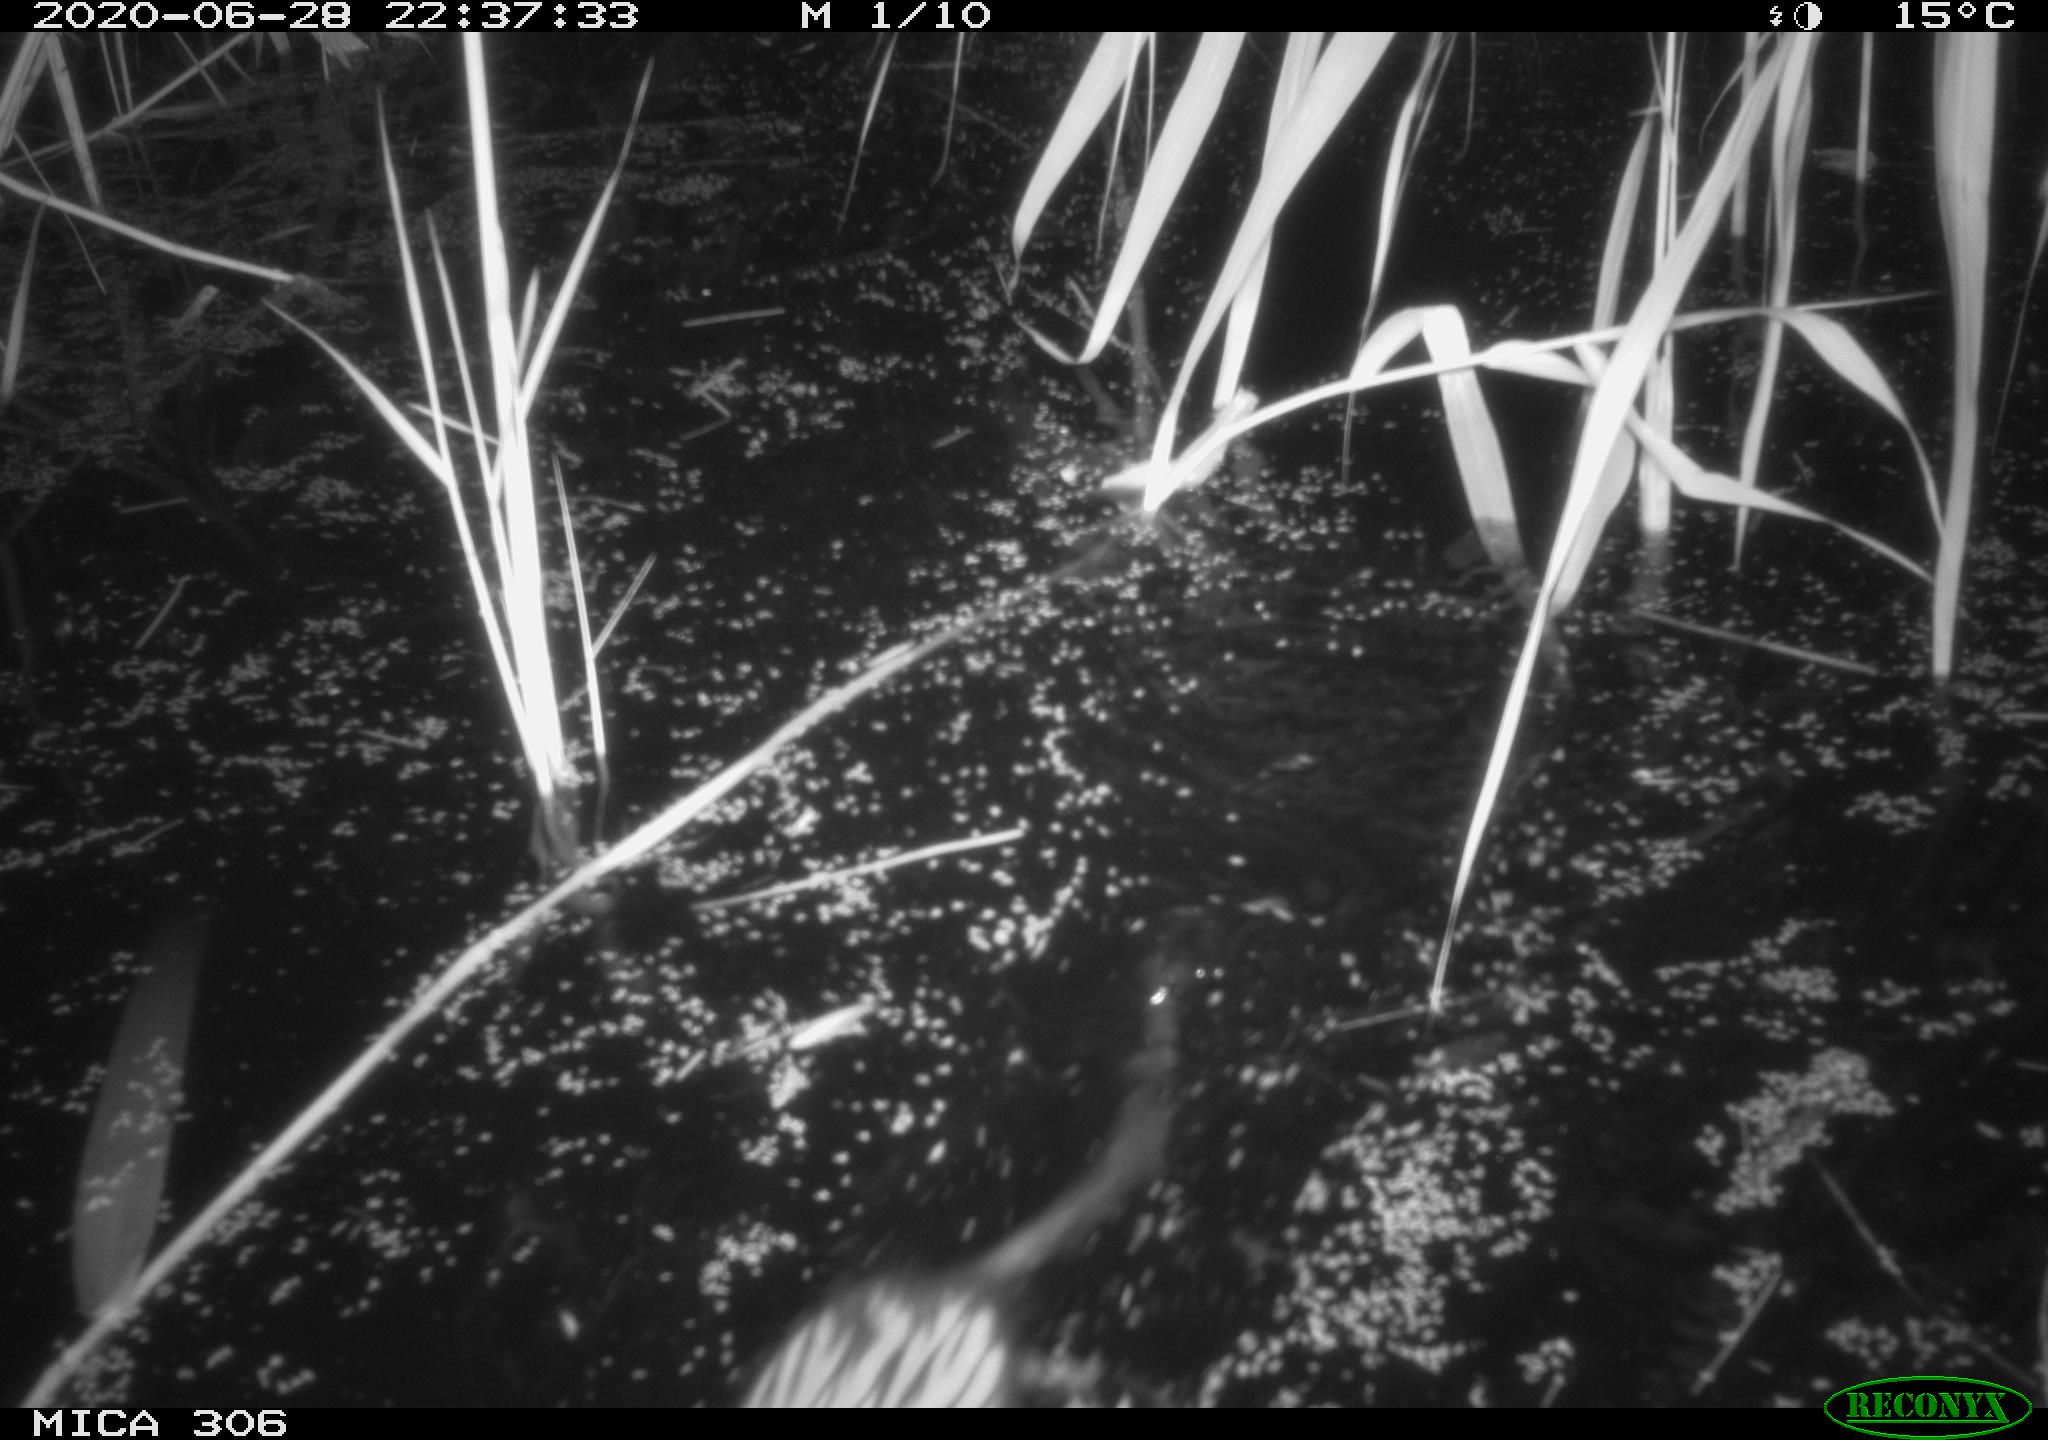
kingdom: Animalia
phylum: Chordata
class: Mammalia
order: Rodentia
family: Muridae
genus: Rattus
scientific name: Rattus norvegicus
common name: Brown rat
